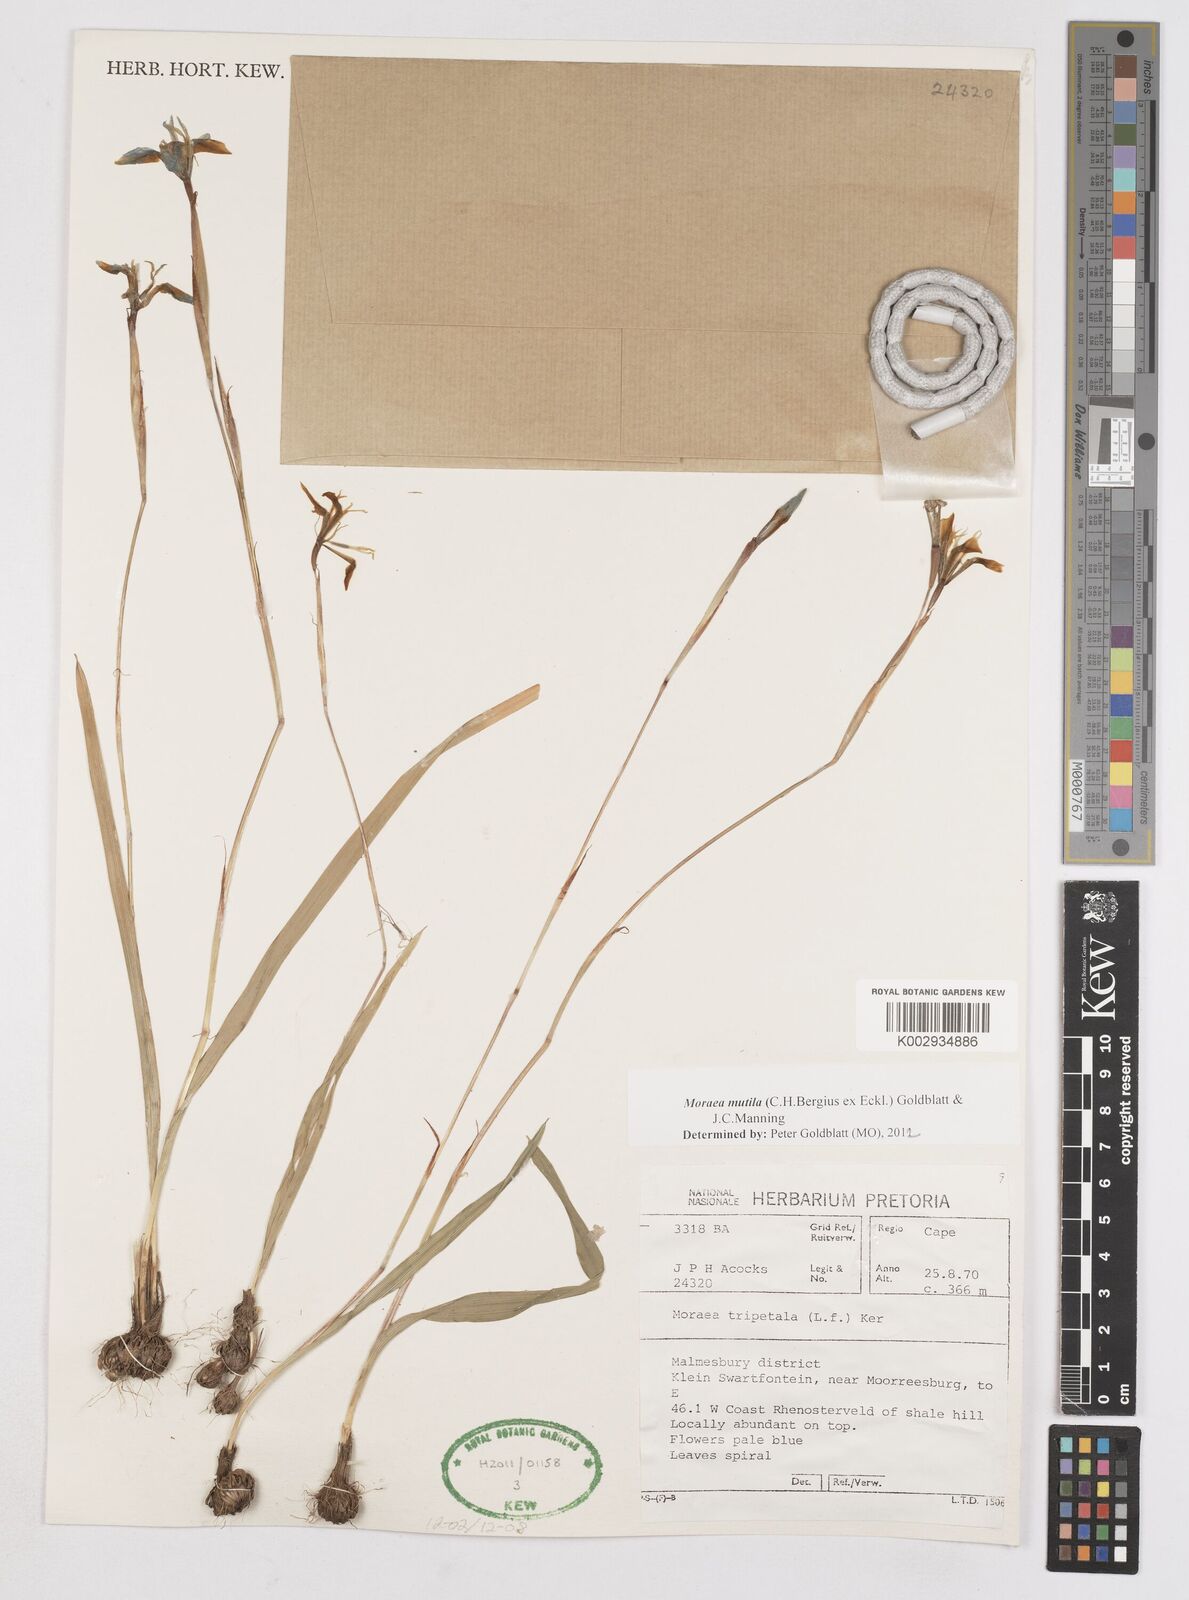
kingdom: Plantae
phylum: Tracheophyta
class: Liliopsida
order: Asparagales
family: Iridaceae
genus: Moraea
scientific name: Moraea punctata
